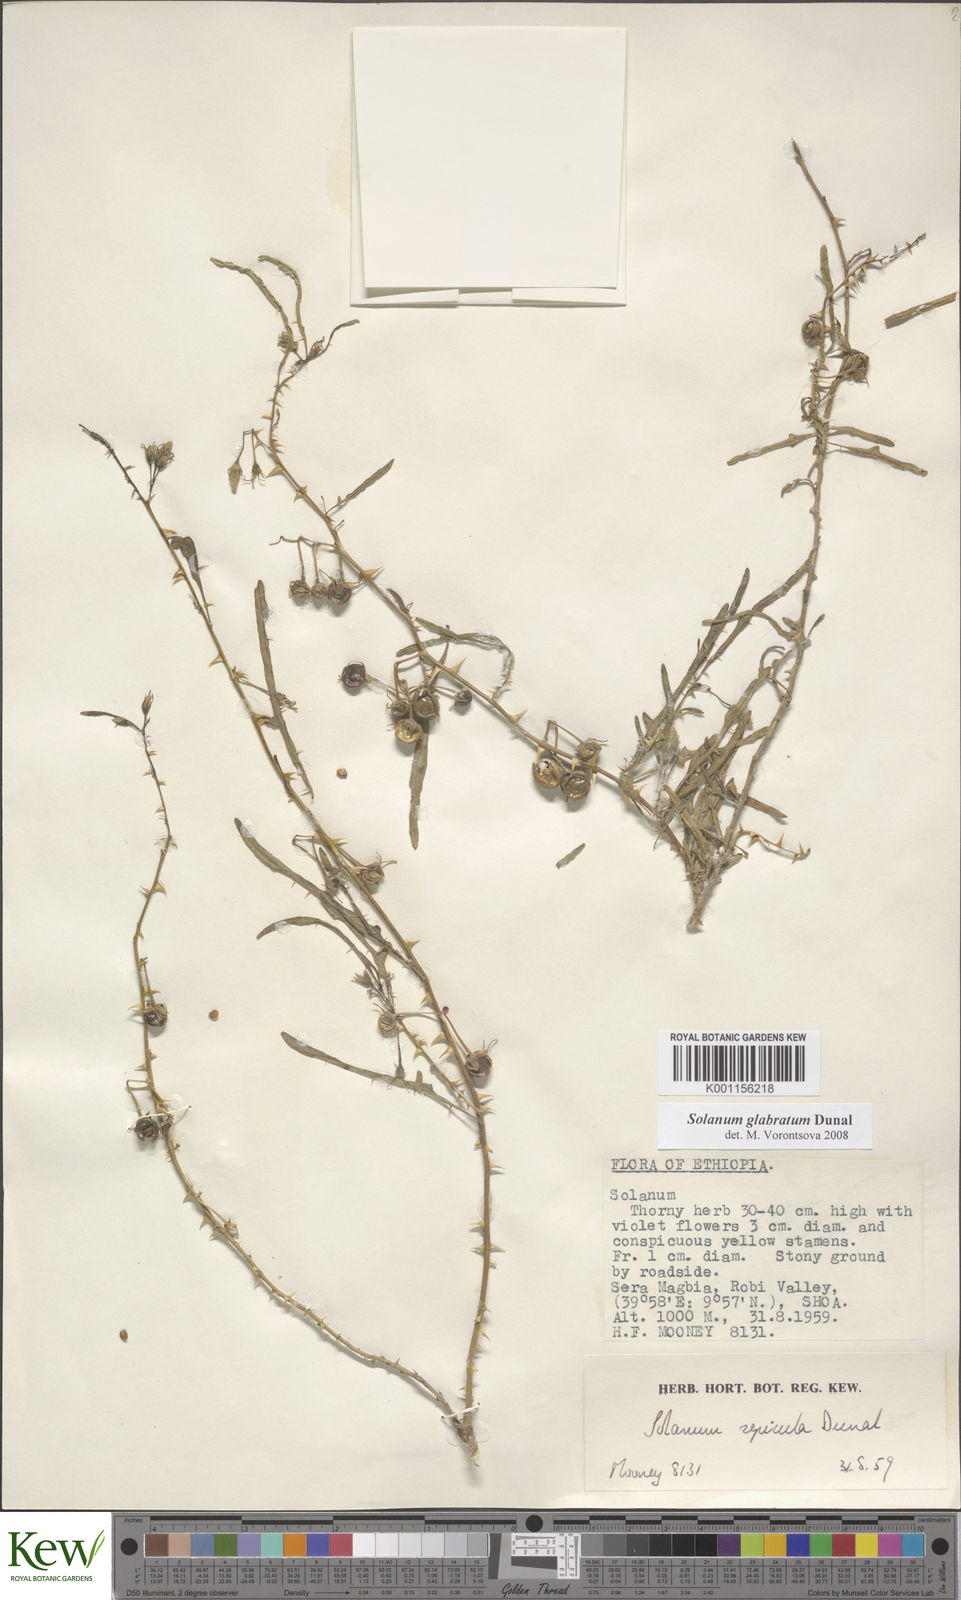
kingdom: Plantae
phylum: Tracheophyta
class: Magnoliopsida
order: Solanales
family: Solanaceae
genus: Solanum
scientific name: Solanum glabratum
